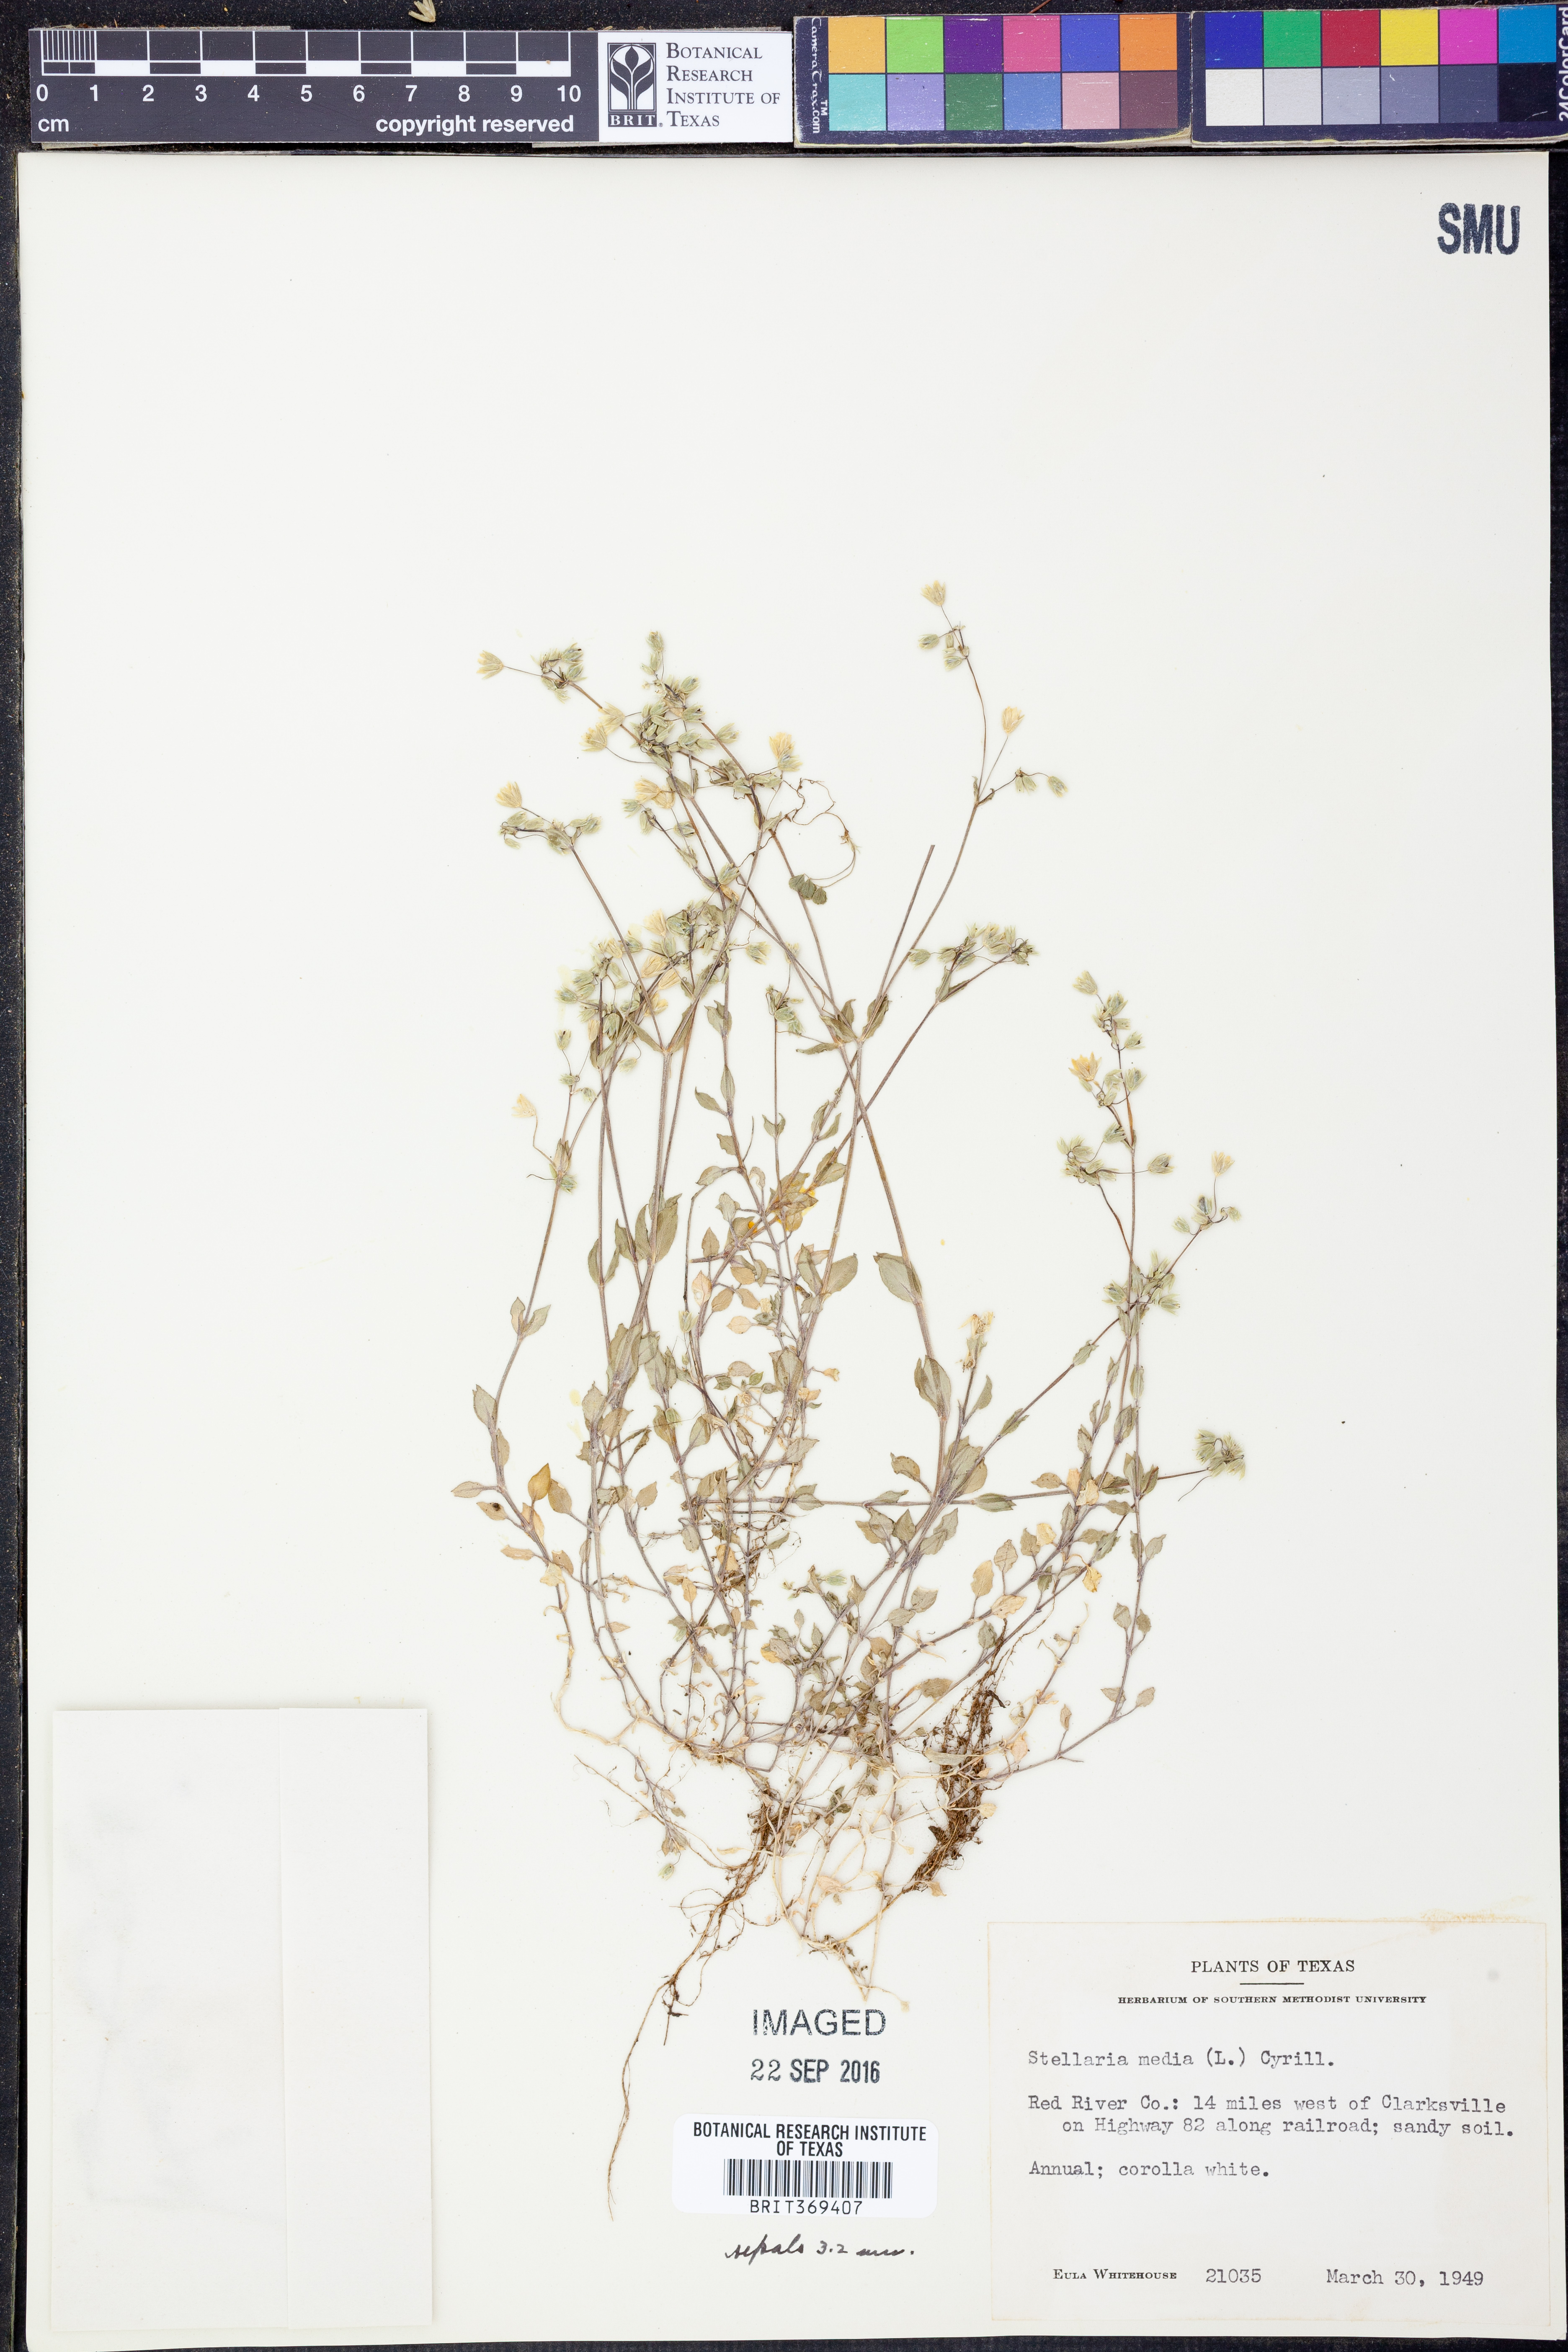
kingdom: Plantae
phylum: Tracheophyta
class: Magnoliopsida
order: Caryophyllales
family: Caryophyllaceae
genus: Stellaria
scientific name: Stellaria media
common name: Common chickweed
